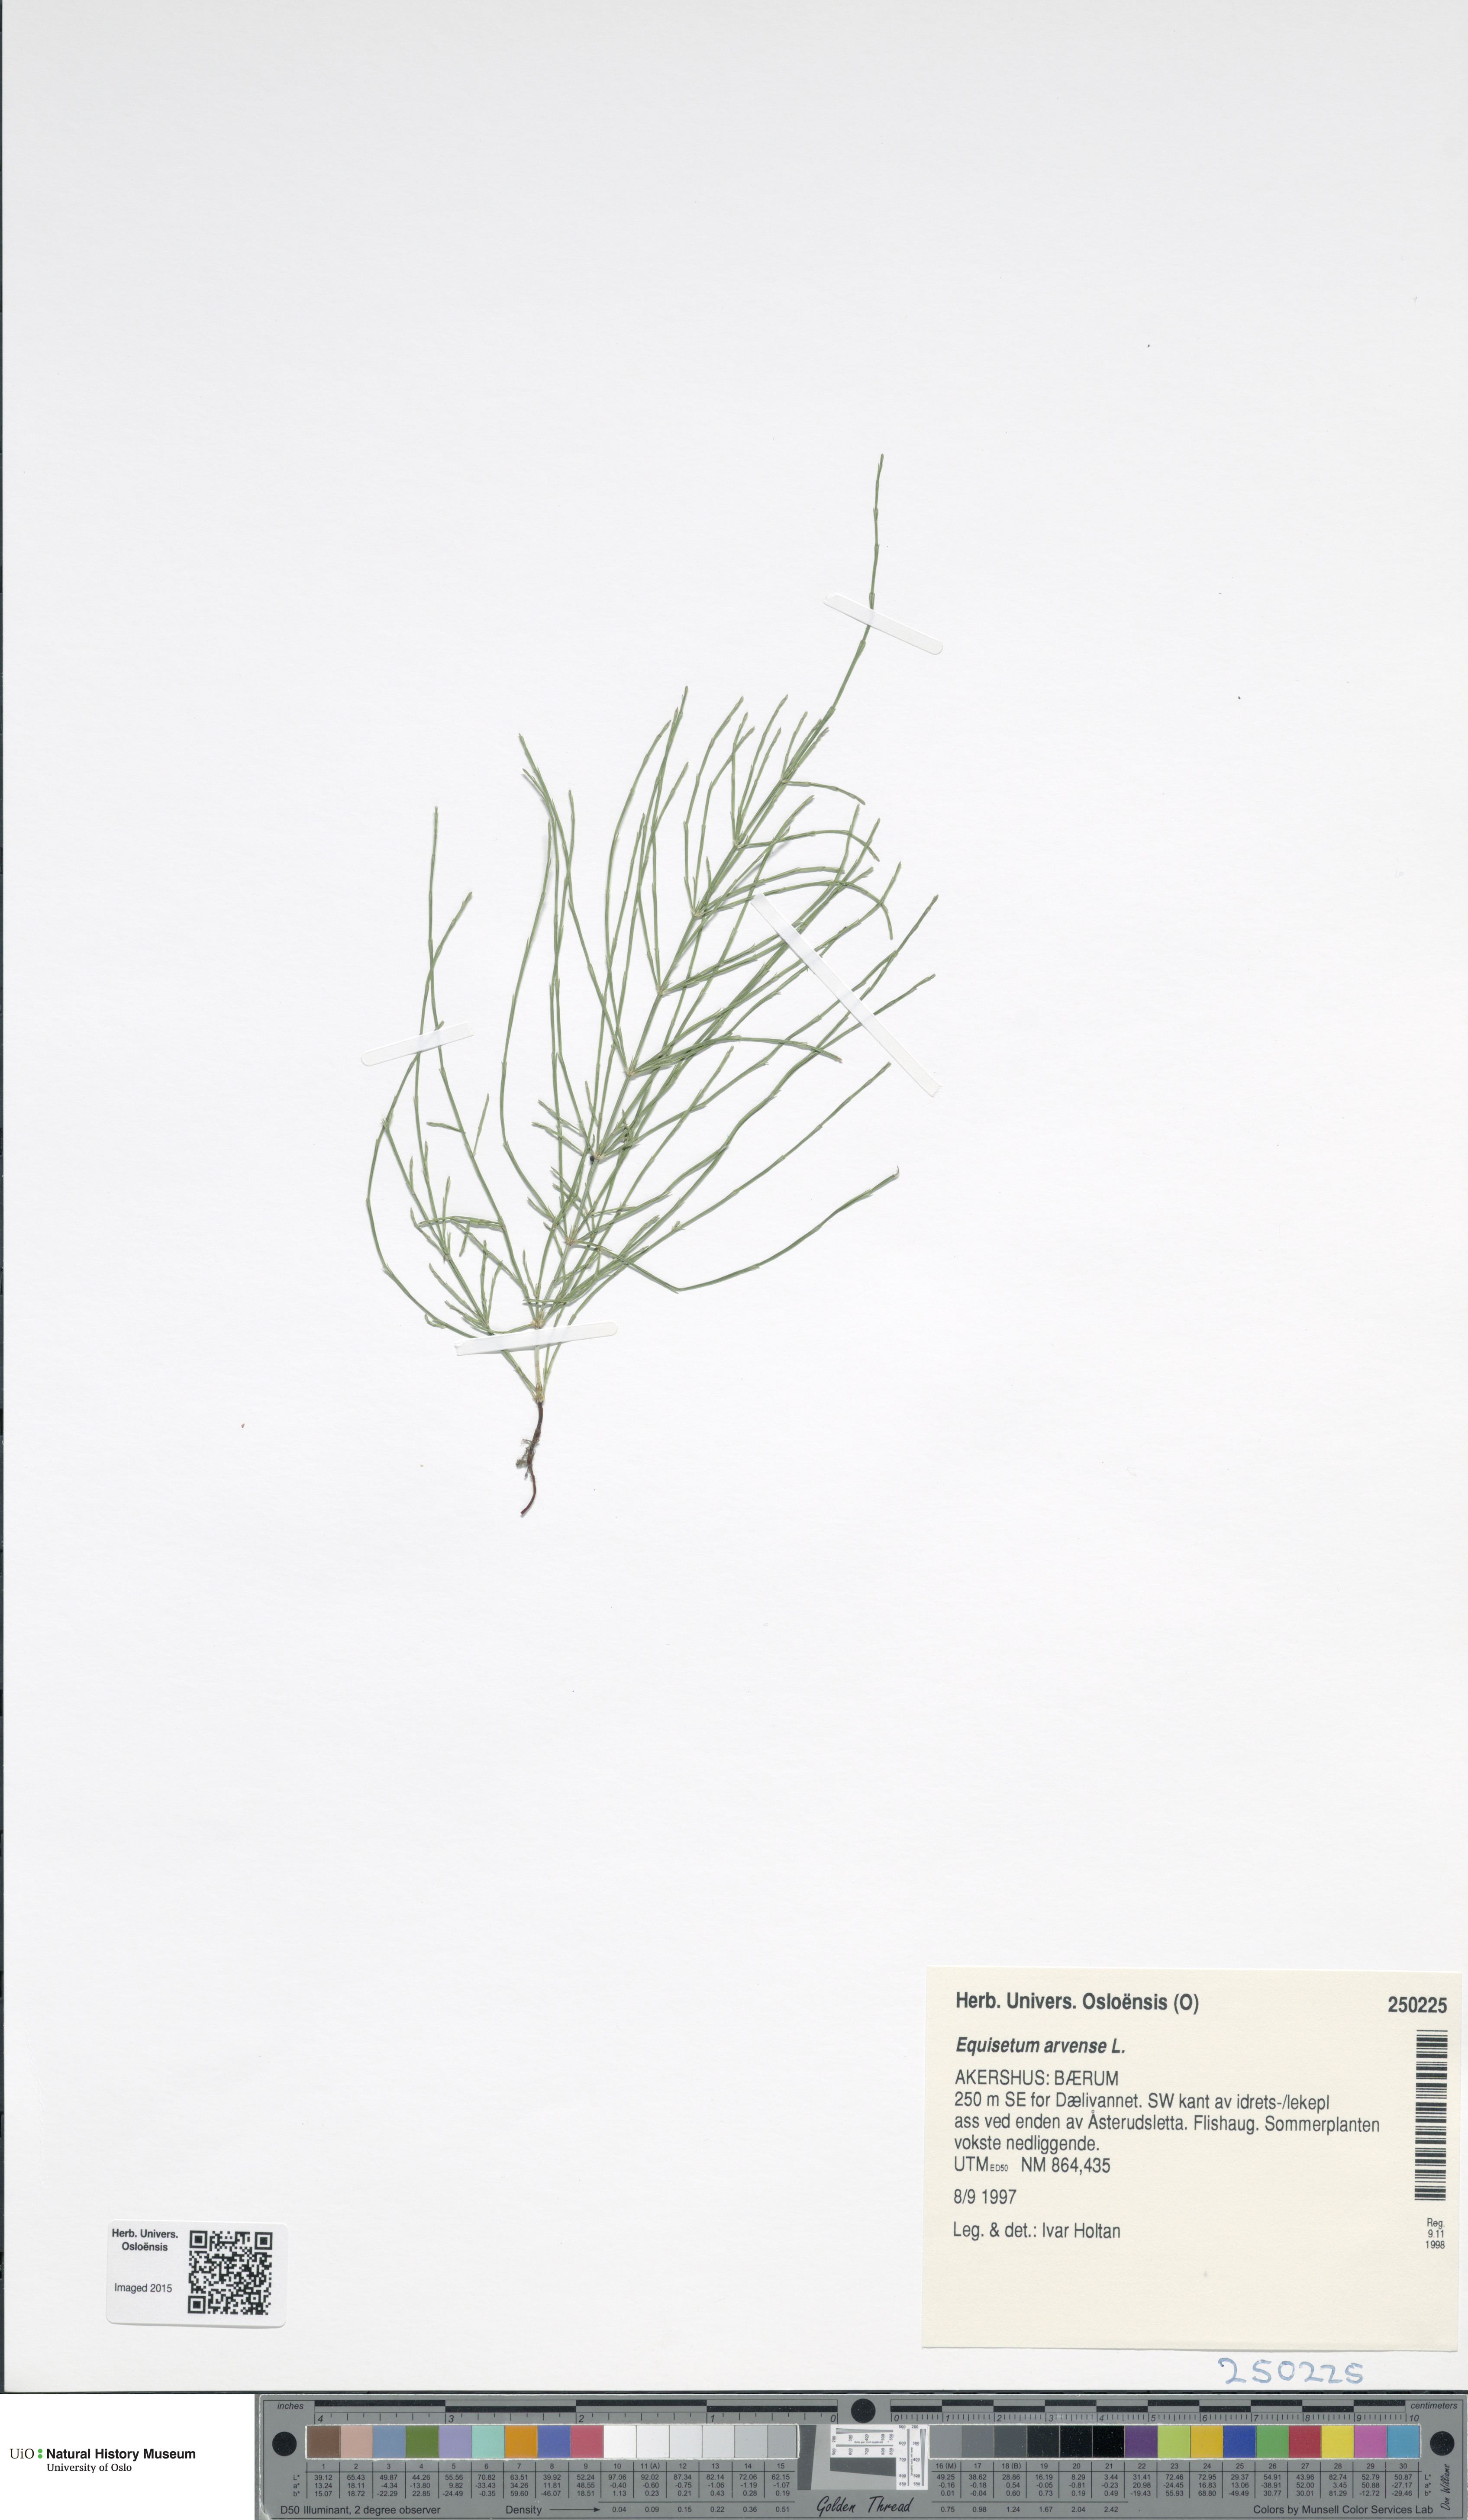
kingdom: Plantae
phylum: Tracheophyta
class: Polypodiopsida
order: Equisetales
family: Equisetaceae
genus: Equisetum
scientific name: Equisetum arvense
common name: Field horsetail
